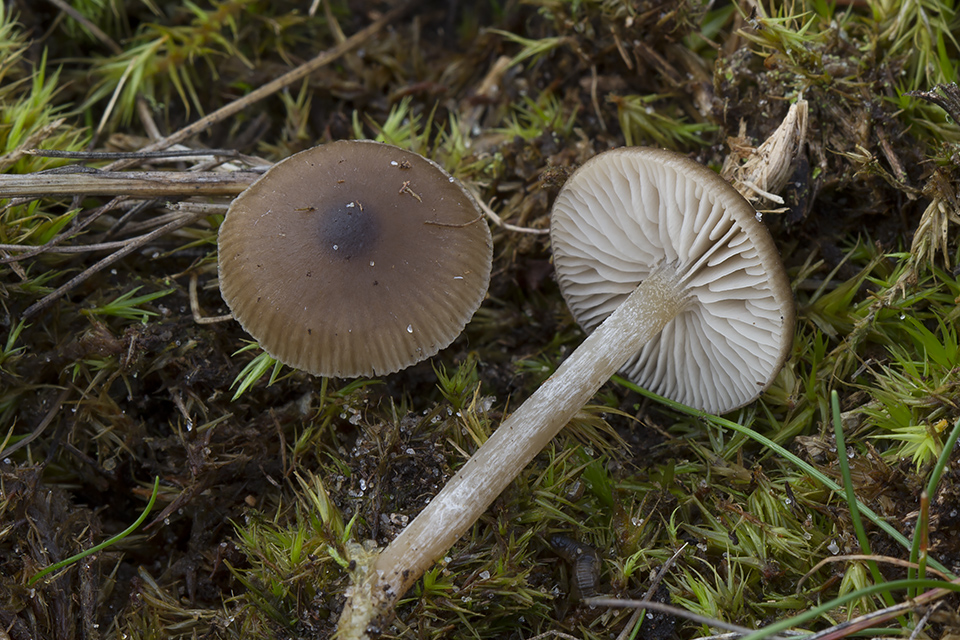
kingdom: Fungi
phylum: Basidiomycota
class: Agaricomycetes
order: Agaricales
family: Entolomataceae
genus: Entocybe
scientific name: Entocybe vinacea
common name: november-rødblad
